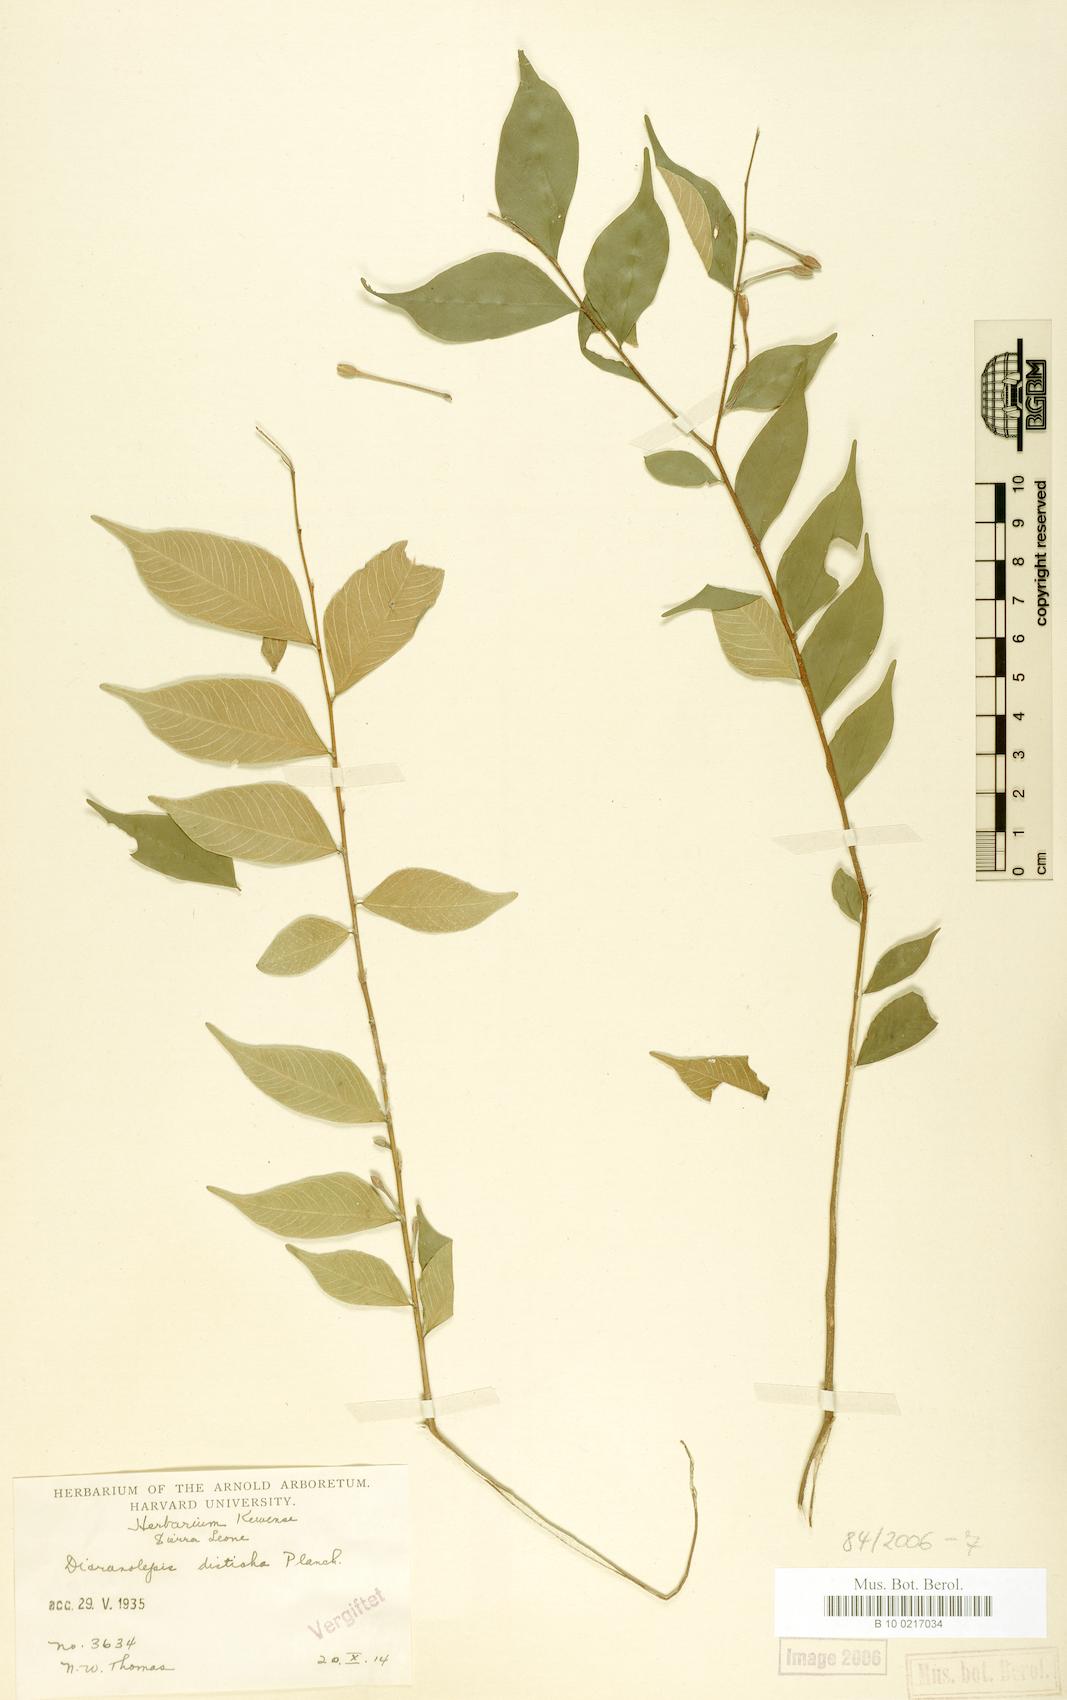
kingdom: Plantae
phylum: Tracheophyta
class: Magnoliopsida
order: Malvales
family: Thymelaeaceae
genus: Dicranolepis
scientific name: Dicranolepis disticha
